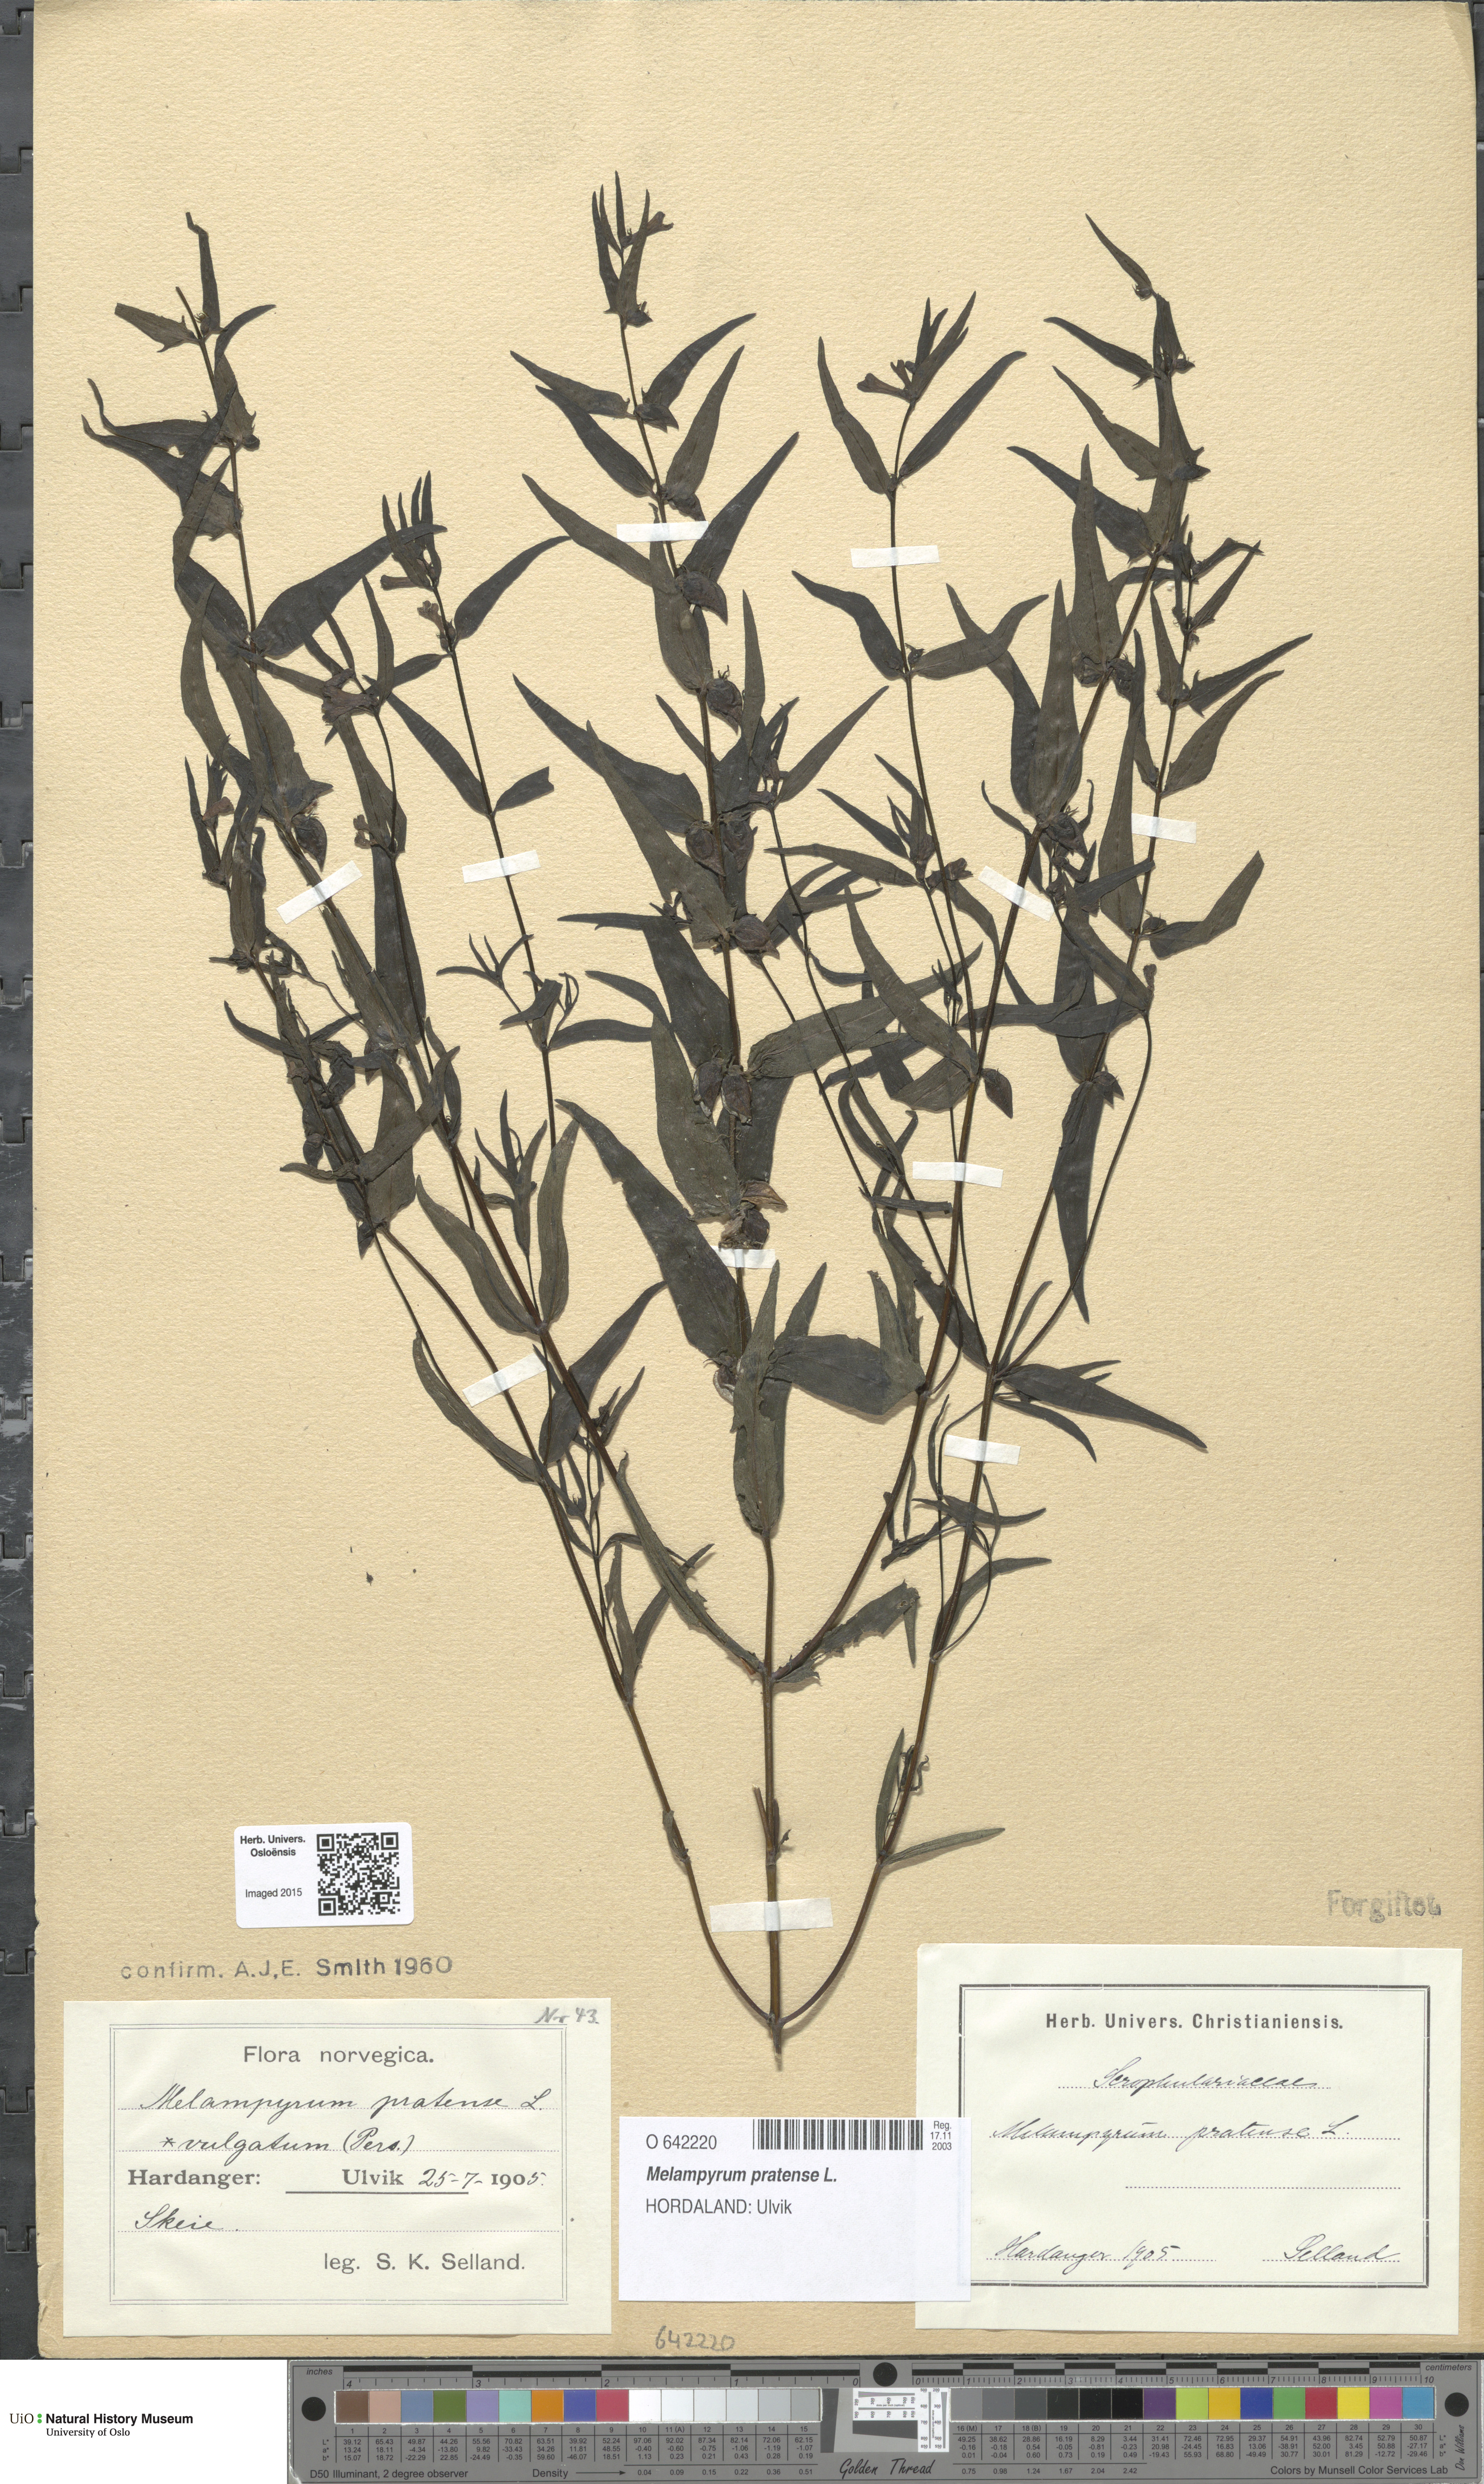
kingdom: Plantae
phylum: Tracheophyta
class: Magnoliopsida
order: Lamiales
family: Orobanchaceae
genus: Melampyrum
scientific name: Melampyrum pratense
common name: Common cow-wheat
